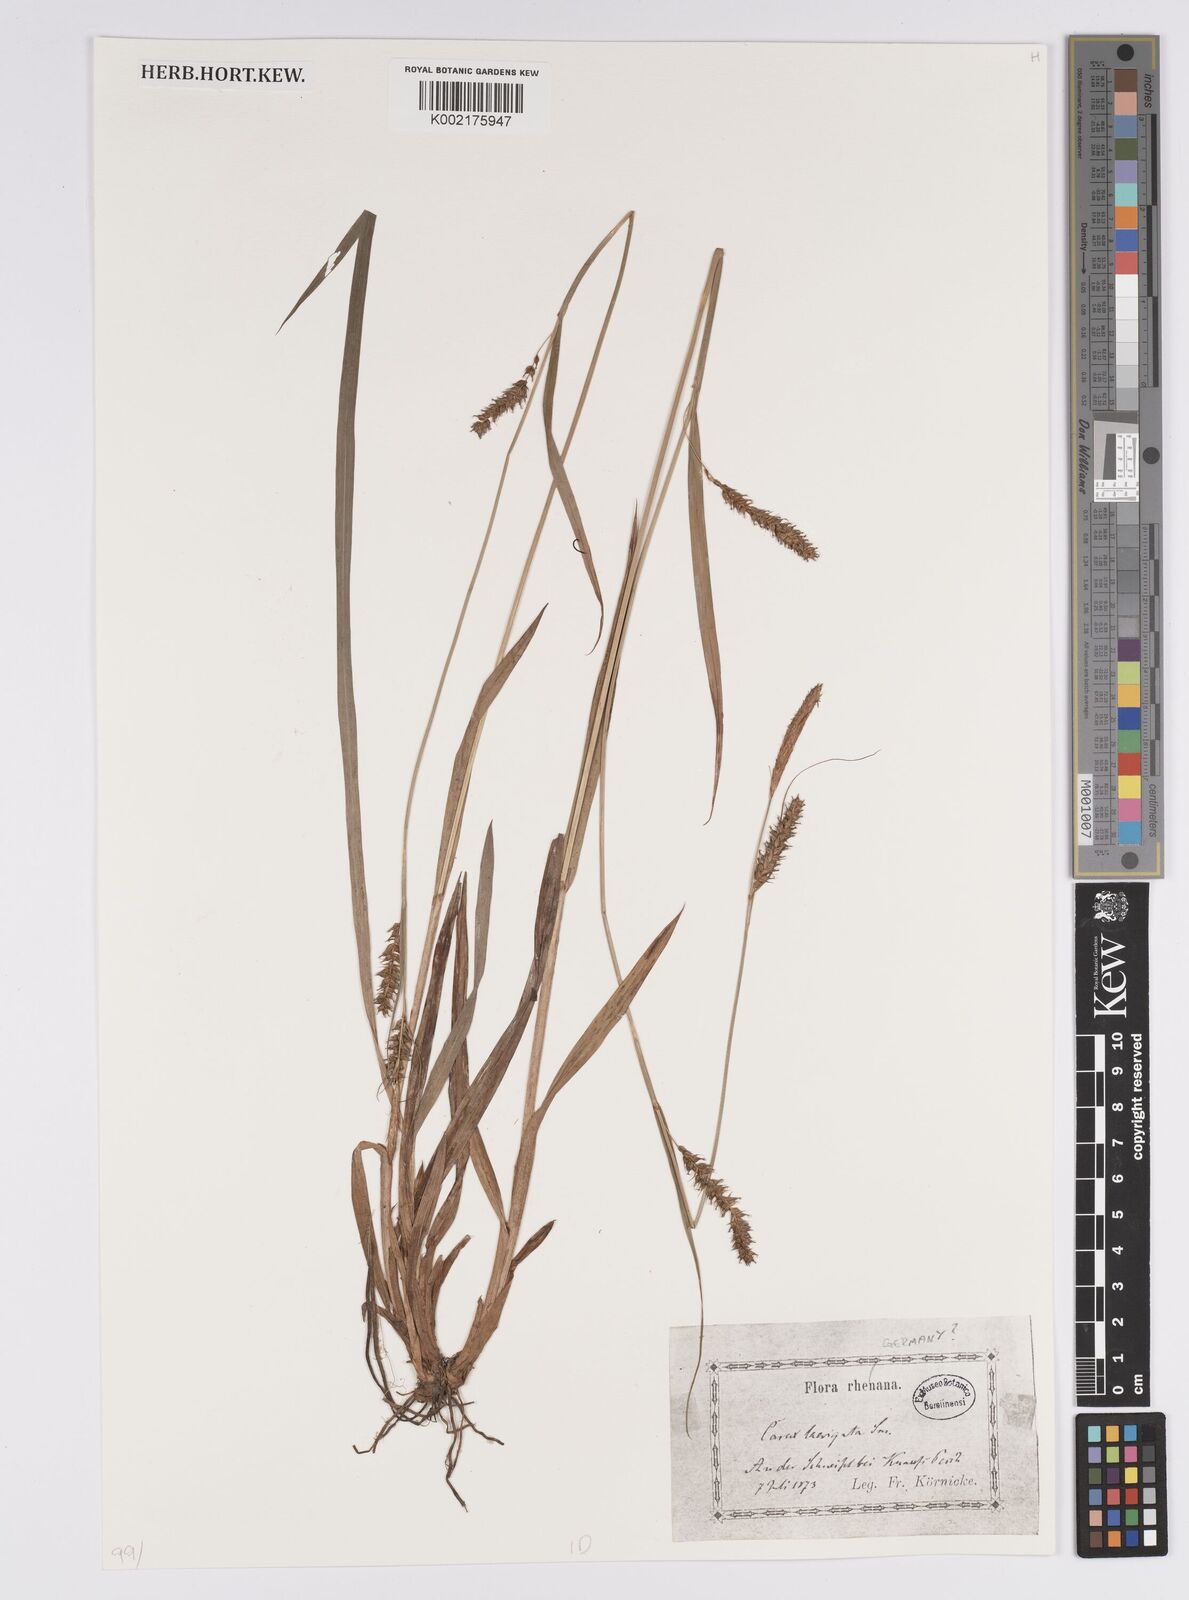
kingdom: Plantae
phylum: Tracheophyta
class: Liliopsida
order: Poales
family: Cyperaceae
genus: Carex
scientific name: Carex laevigata
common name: Smooth-stalked sedge
